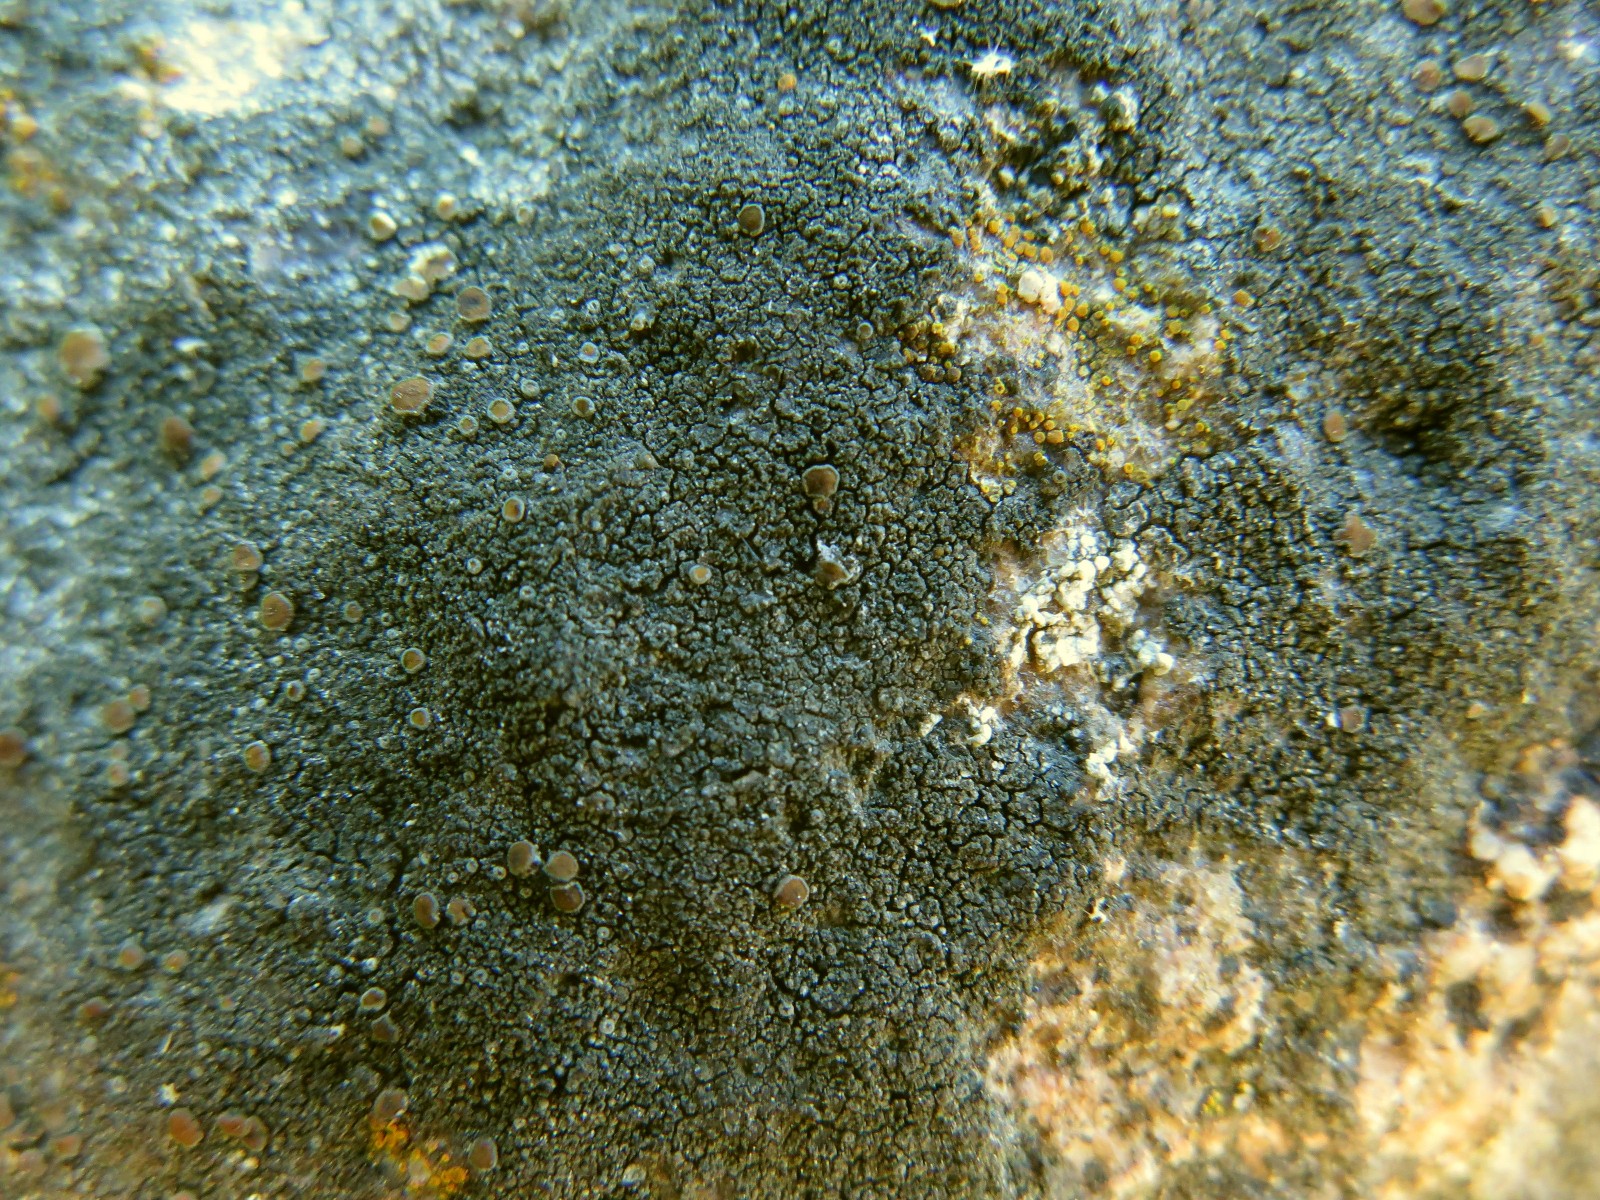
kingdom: Fungi
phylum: Ascomycota
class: Lecanoromycetes
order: Teloschistales
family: Teloschistaceae
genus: Caloplaca
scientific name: Caloplaca chlorina
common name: mørkskællet orangelav
